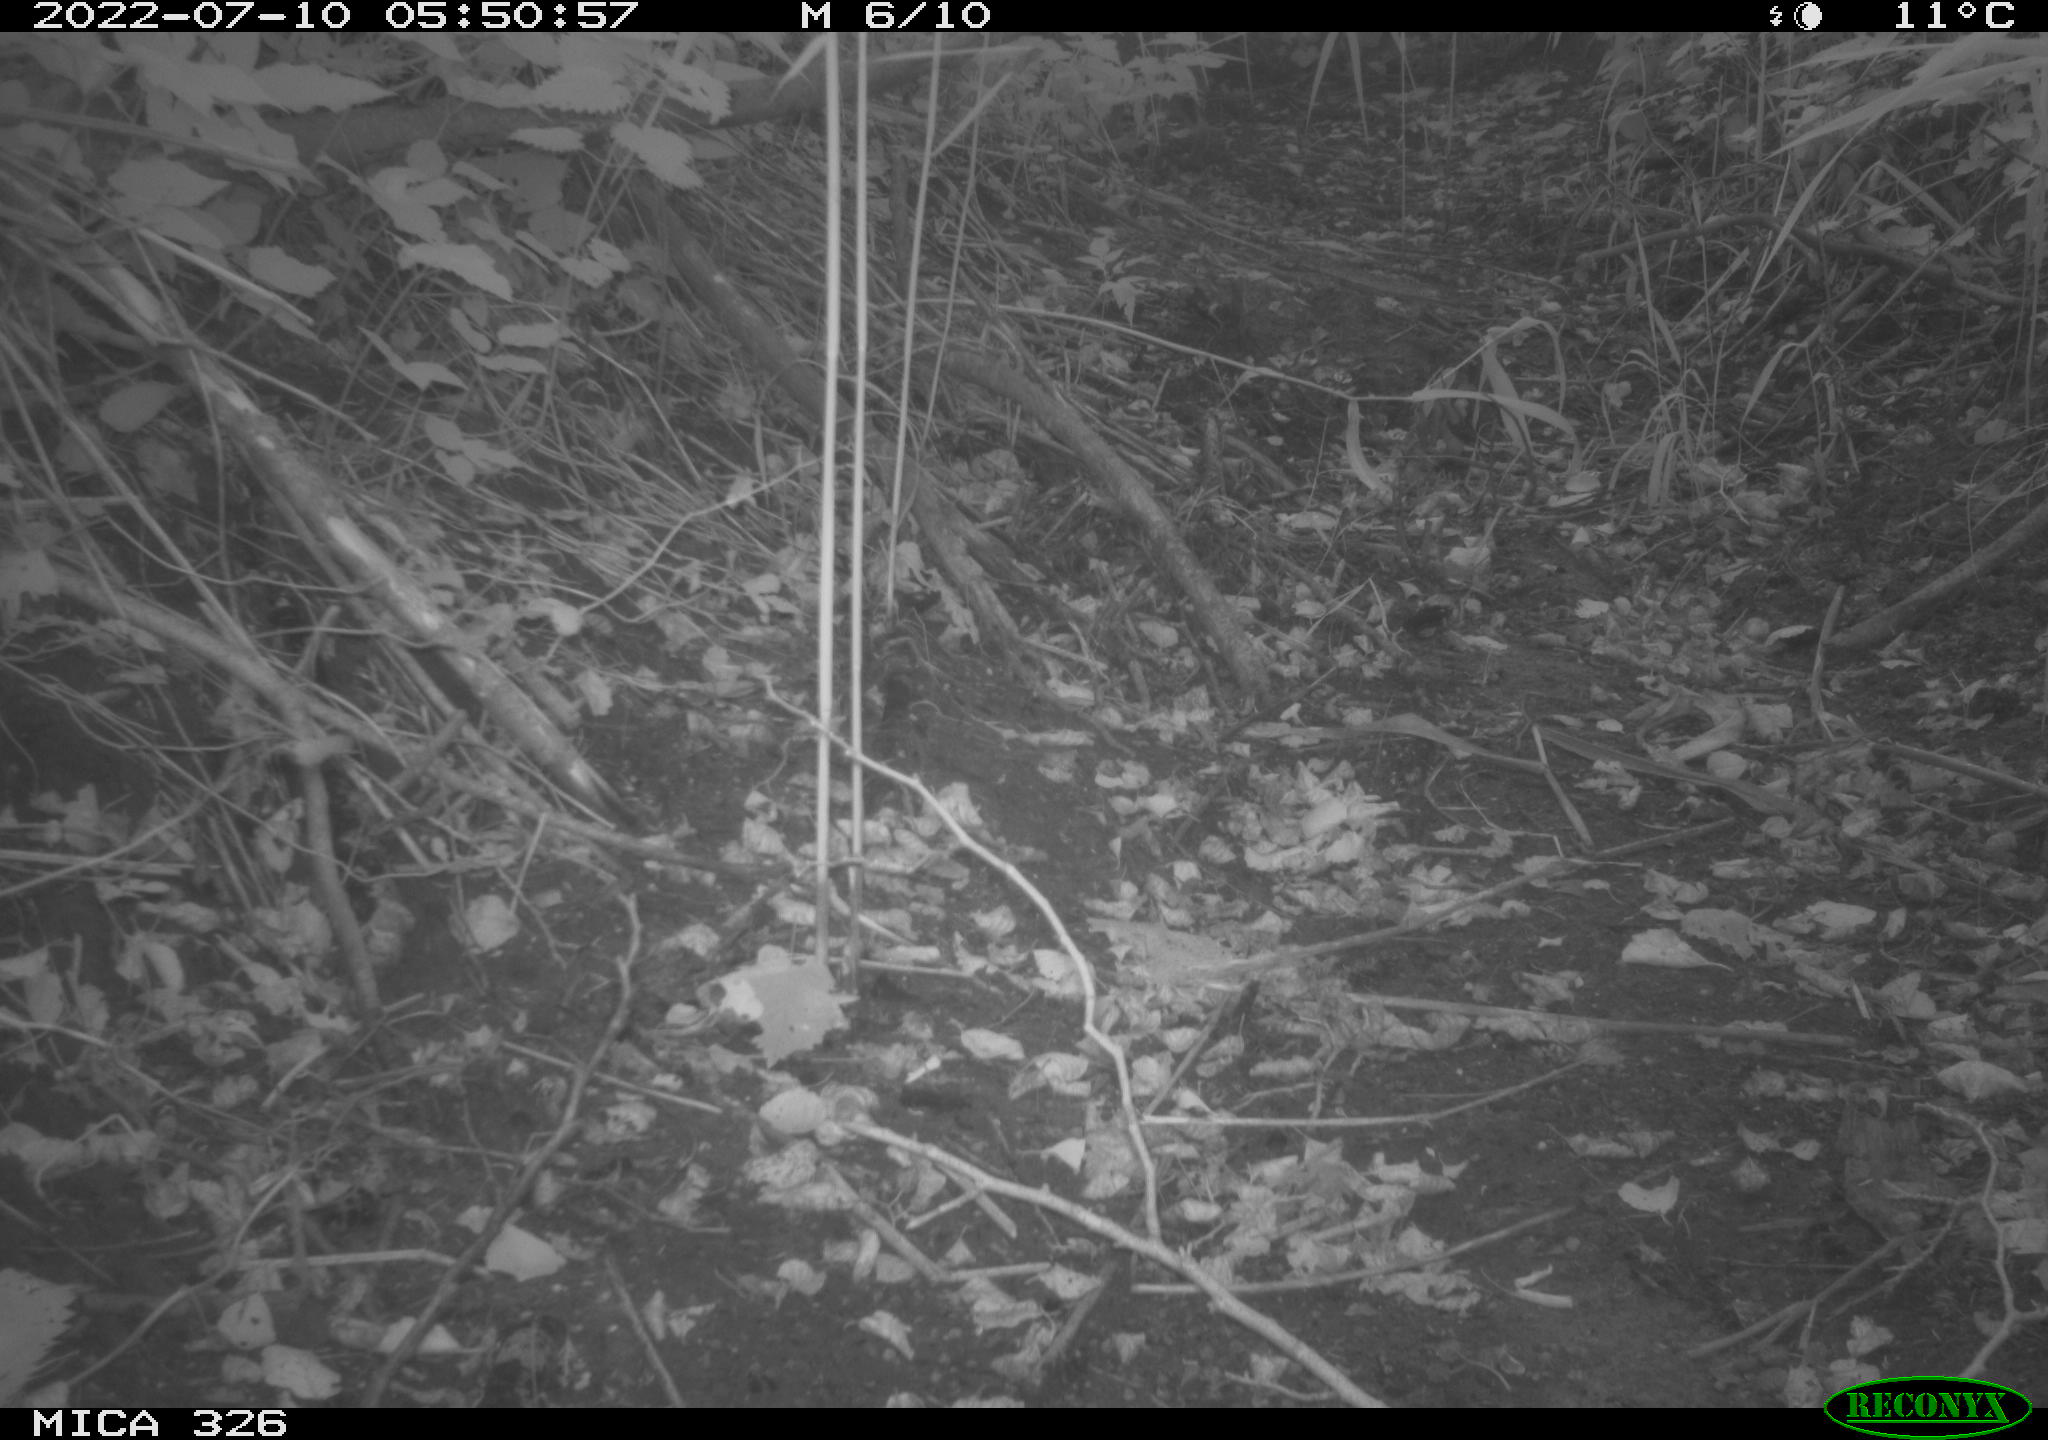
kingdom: Animalia
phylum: Chordata
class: Mammalia
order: Lagomorpha
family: Leporidae
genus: Lepus
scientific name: Lepus europaeus
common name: European hare
